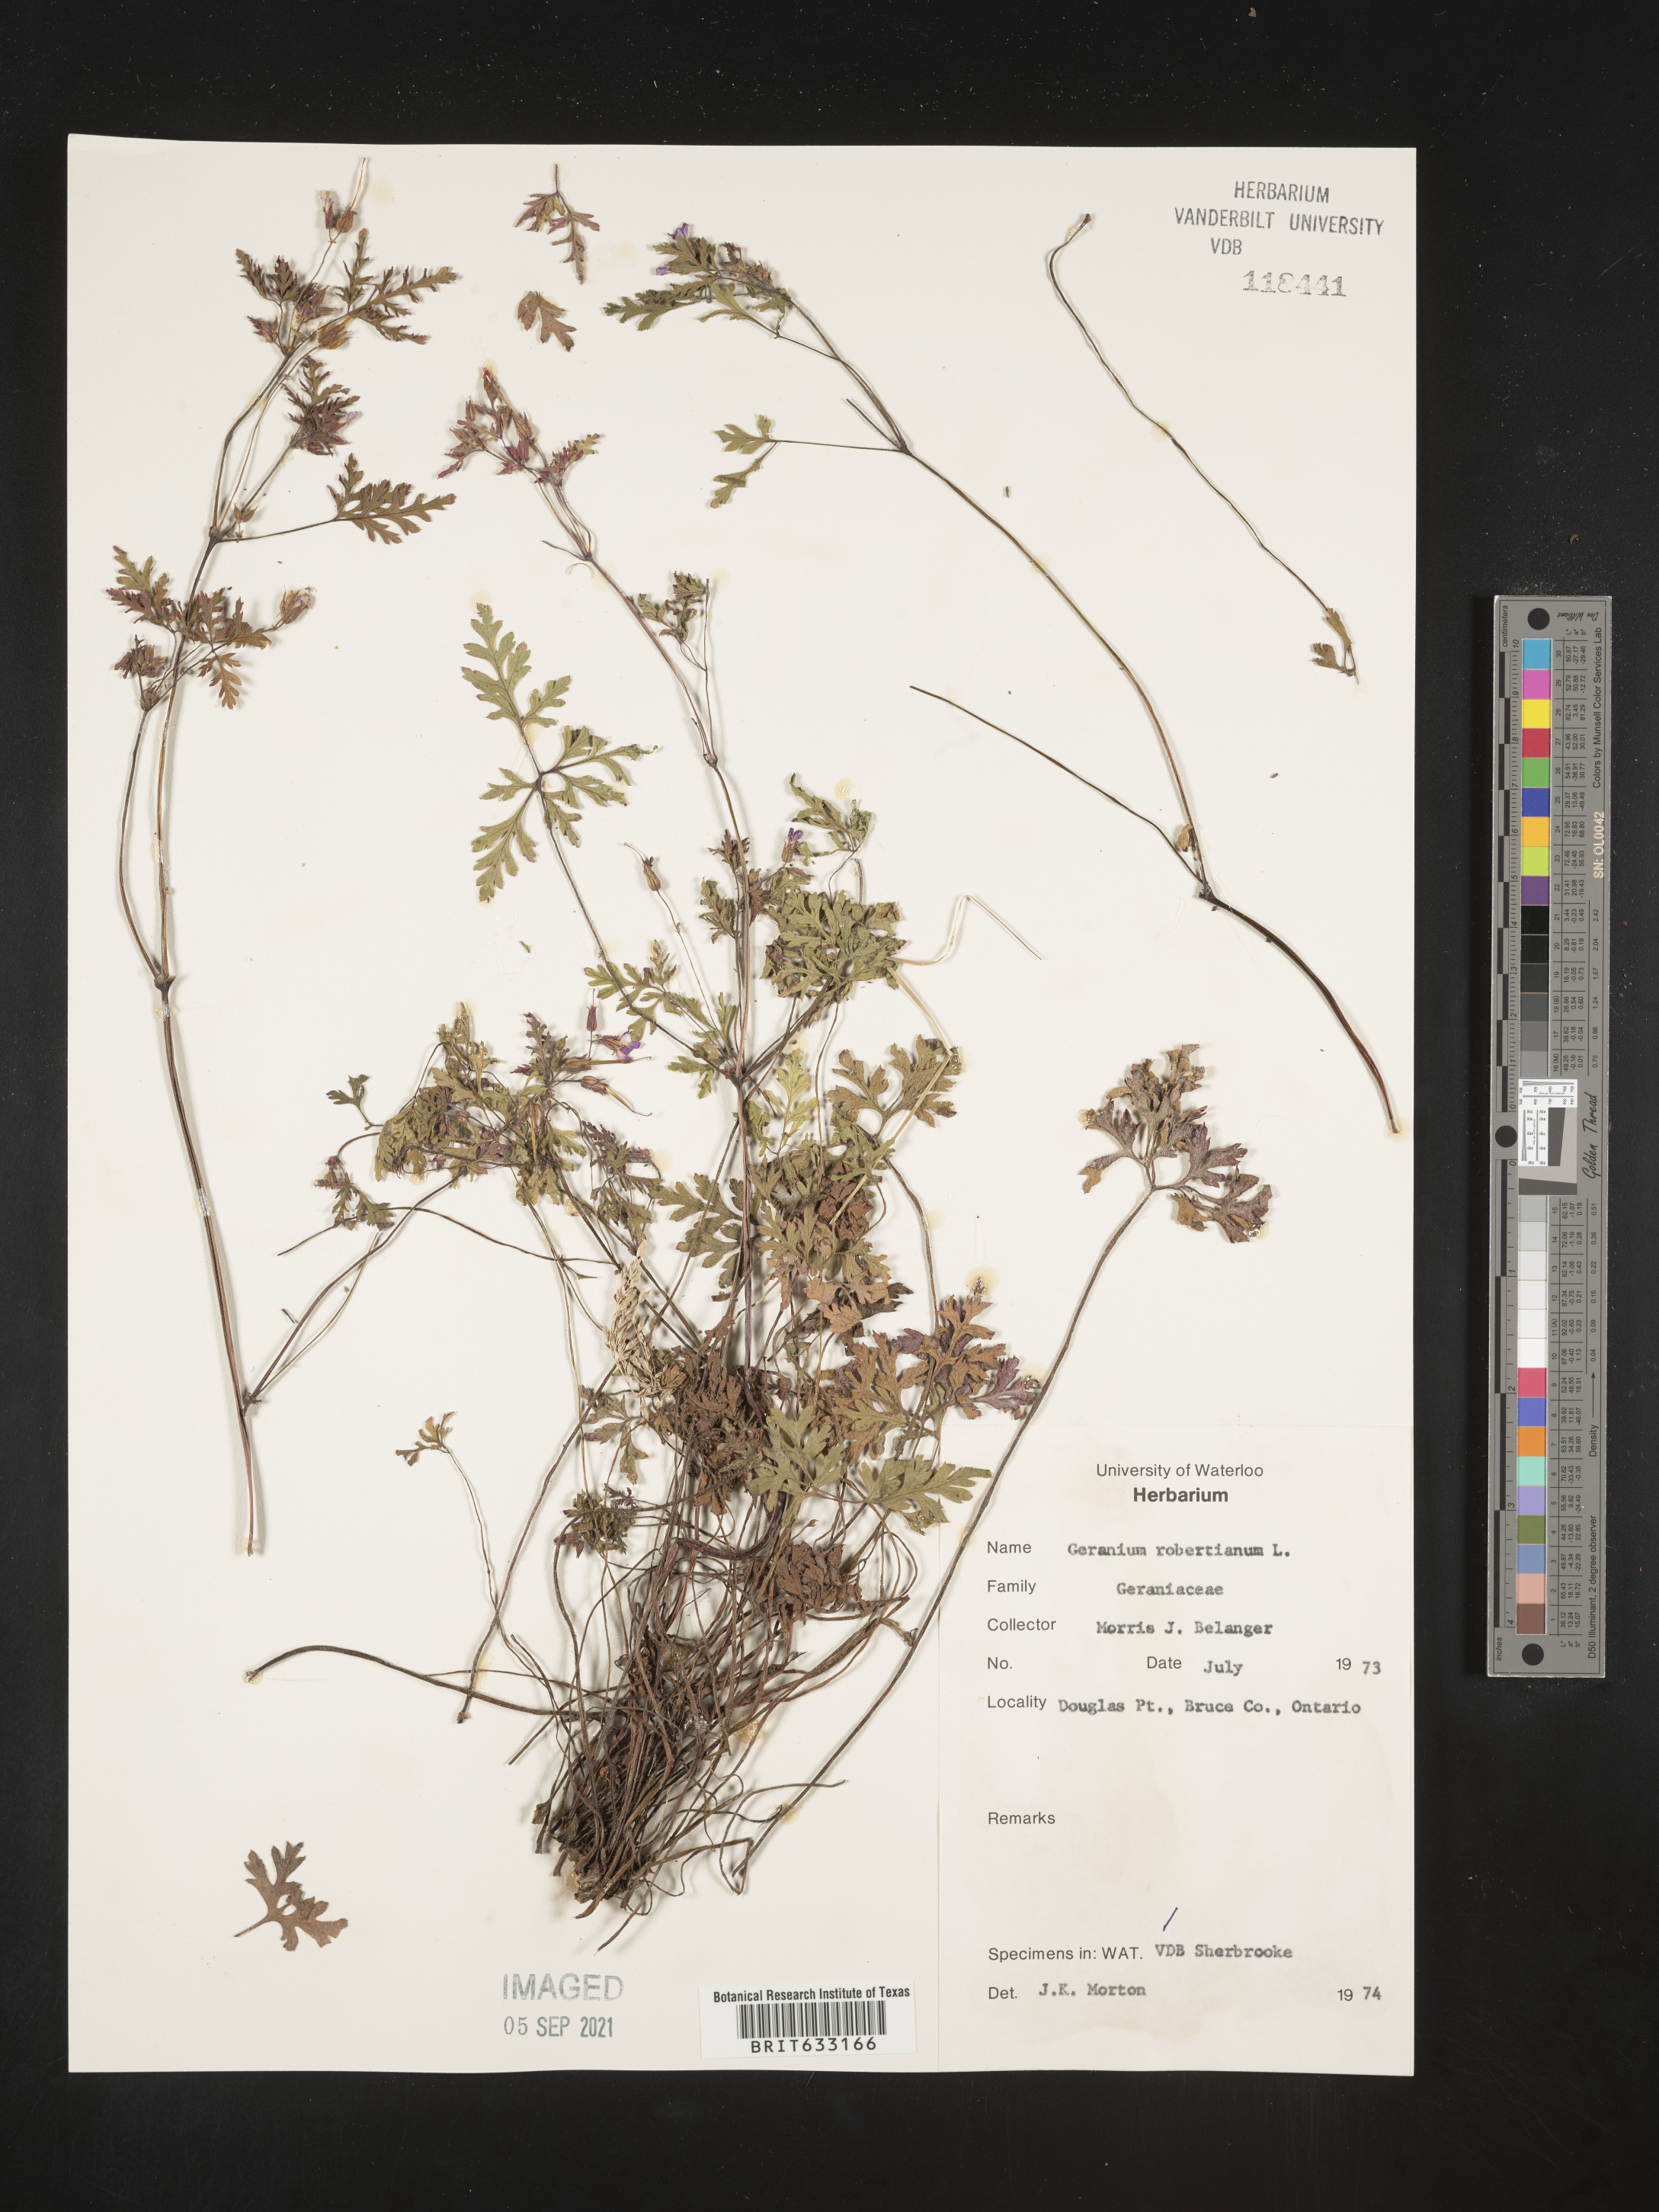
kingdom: Plantae
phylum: Tracheophyta
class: Magnoliopsida
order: Geraniales
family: Geraniaceae
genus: Geranium
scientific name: Geranium
